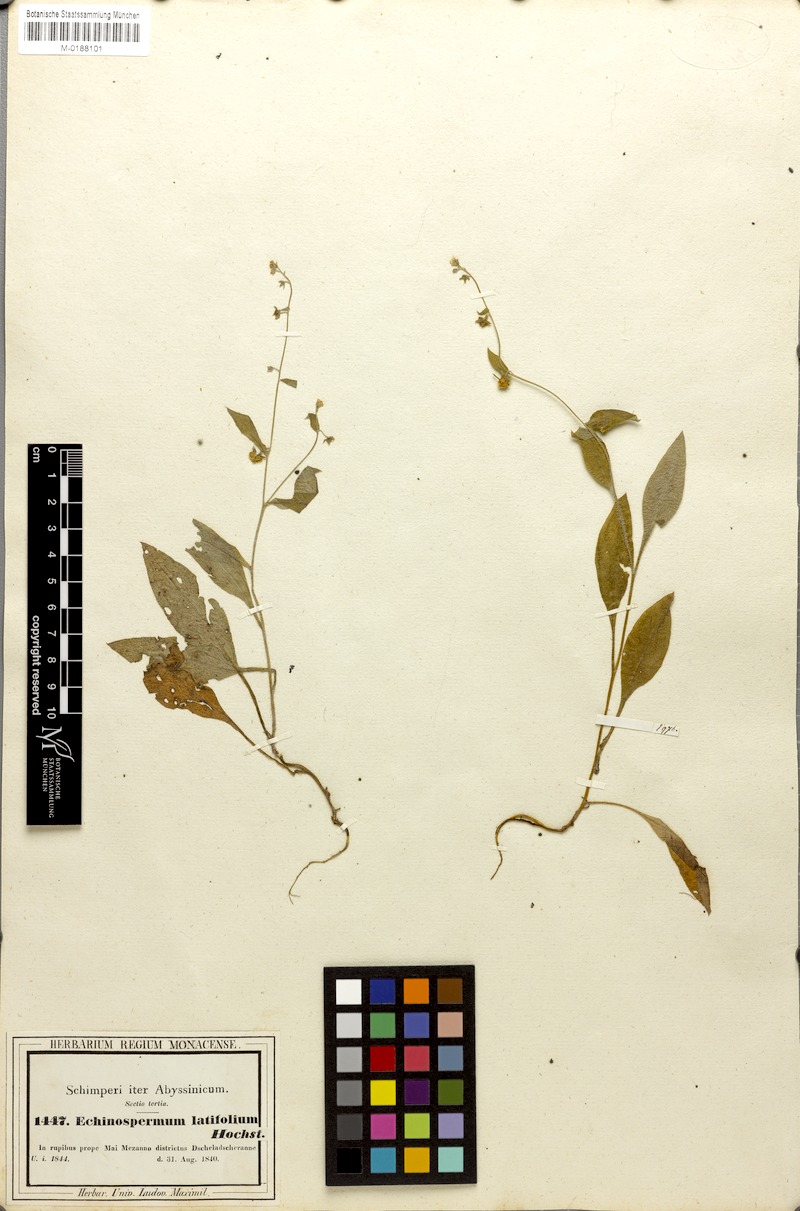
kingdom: Plantae
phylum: Tracheophyta
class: Magnoliopsida
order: Boraginales
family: Boraginaceae
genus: Cynoglossopsis
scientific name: Cynoglossopsis latifolia
